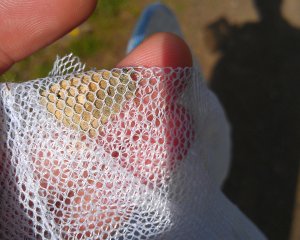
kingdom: Animalia
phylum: Arthropoda
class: Insecta
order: Lepidoptera
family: Nymphalidae
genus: Coenonympha
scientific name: Coenonympha tullia
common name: Large Heath
